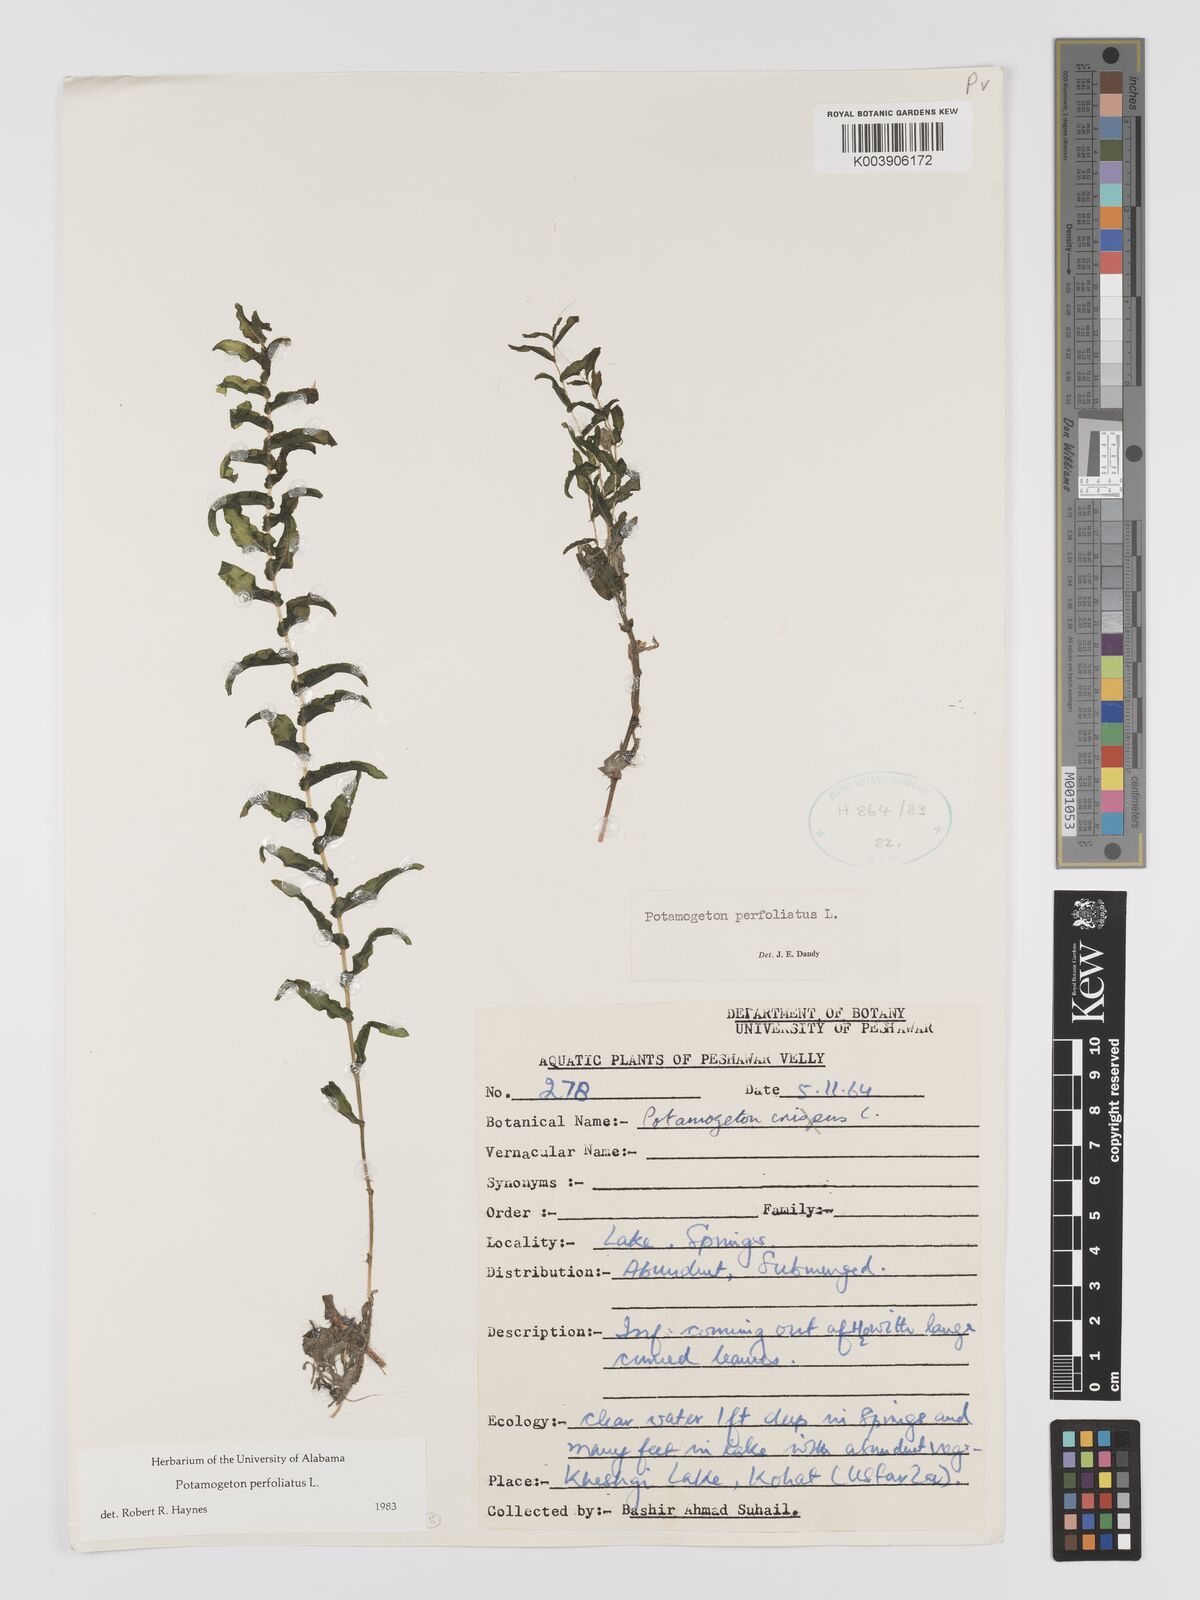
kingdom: Plantae
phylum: Tracheophyta
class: Liliopsida
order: Alismatales
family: Potamogetonaceae
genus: Potamogeton
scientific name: Potamogeton perfoliatus
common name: Perfoliate pondweed
